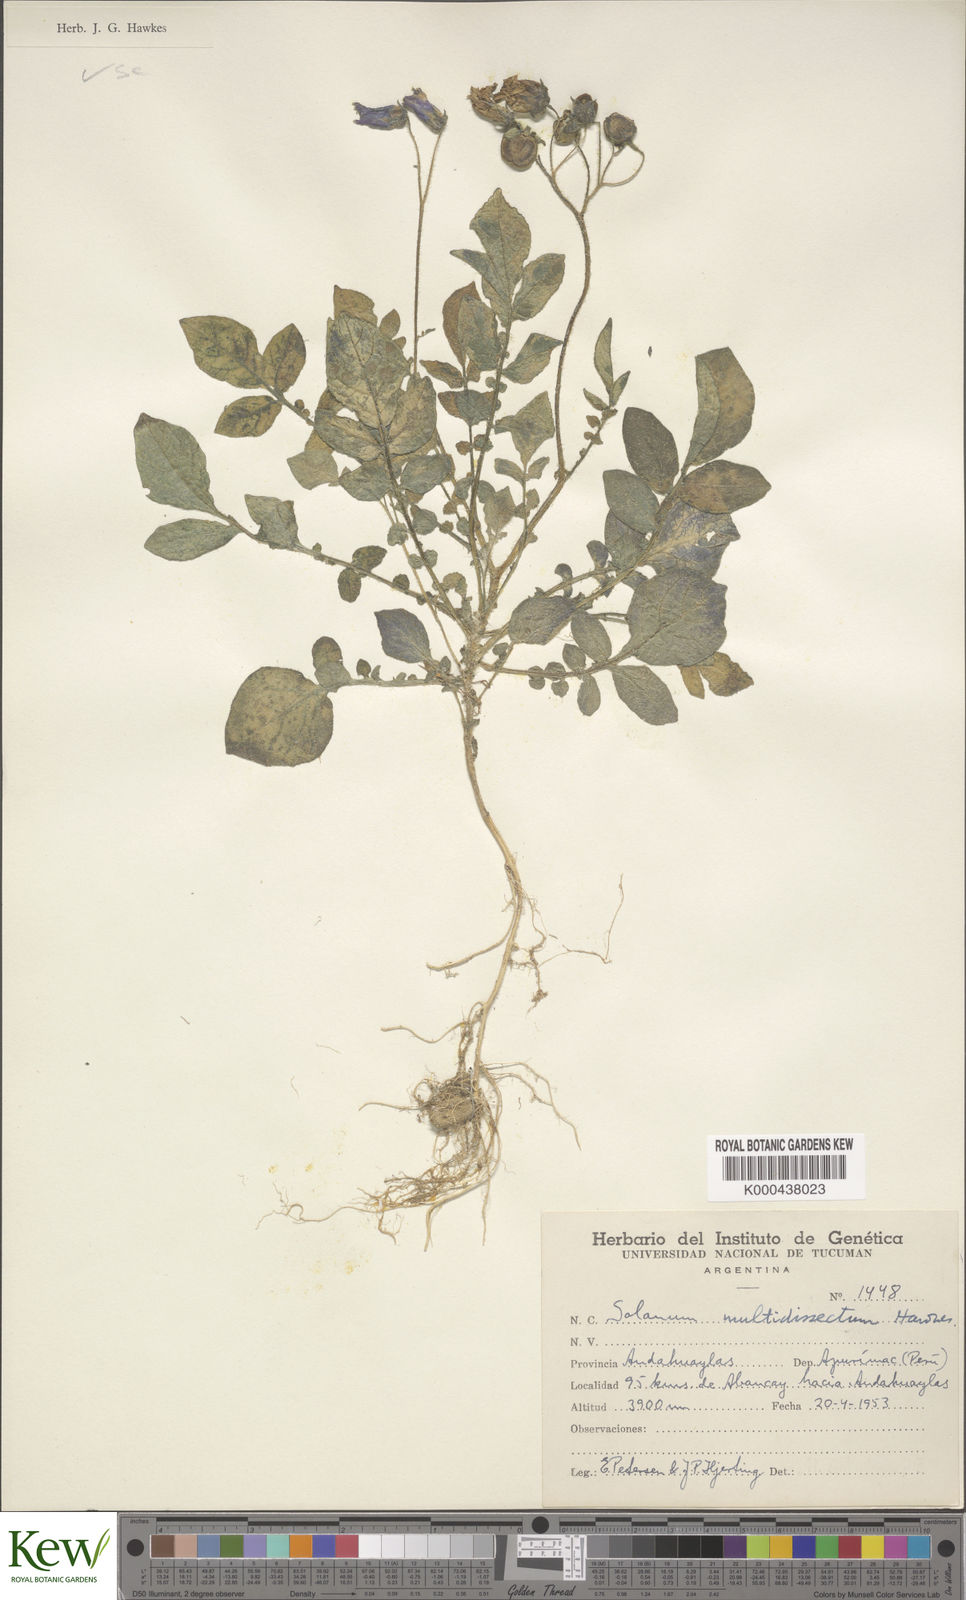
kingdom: Plantae
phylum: Tracheophyta
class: Magnoliopsida
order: Solanales
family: Solanaceae
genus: Solanum
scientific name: Solanum candolleanum
